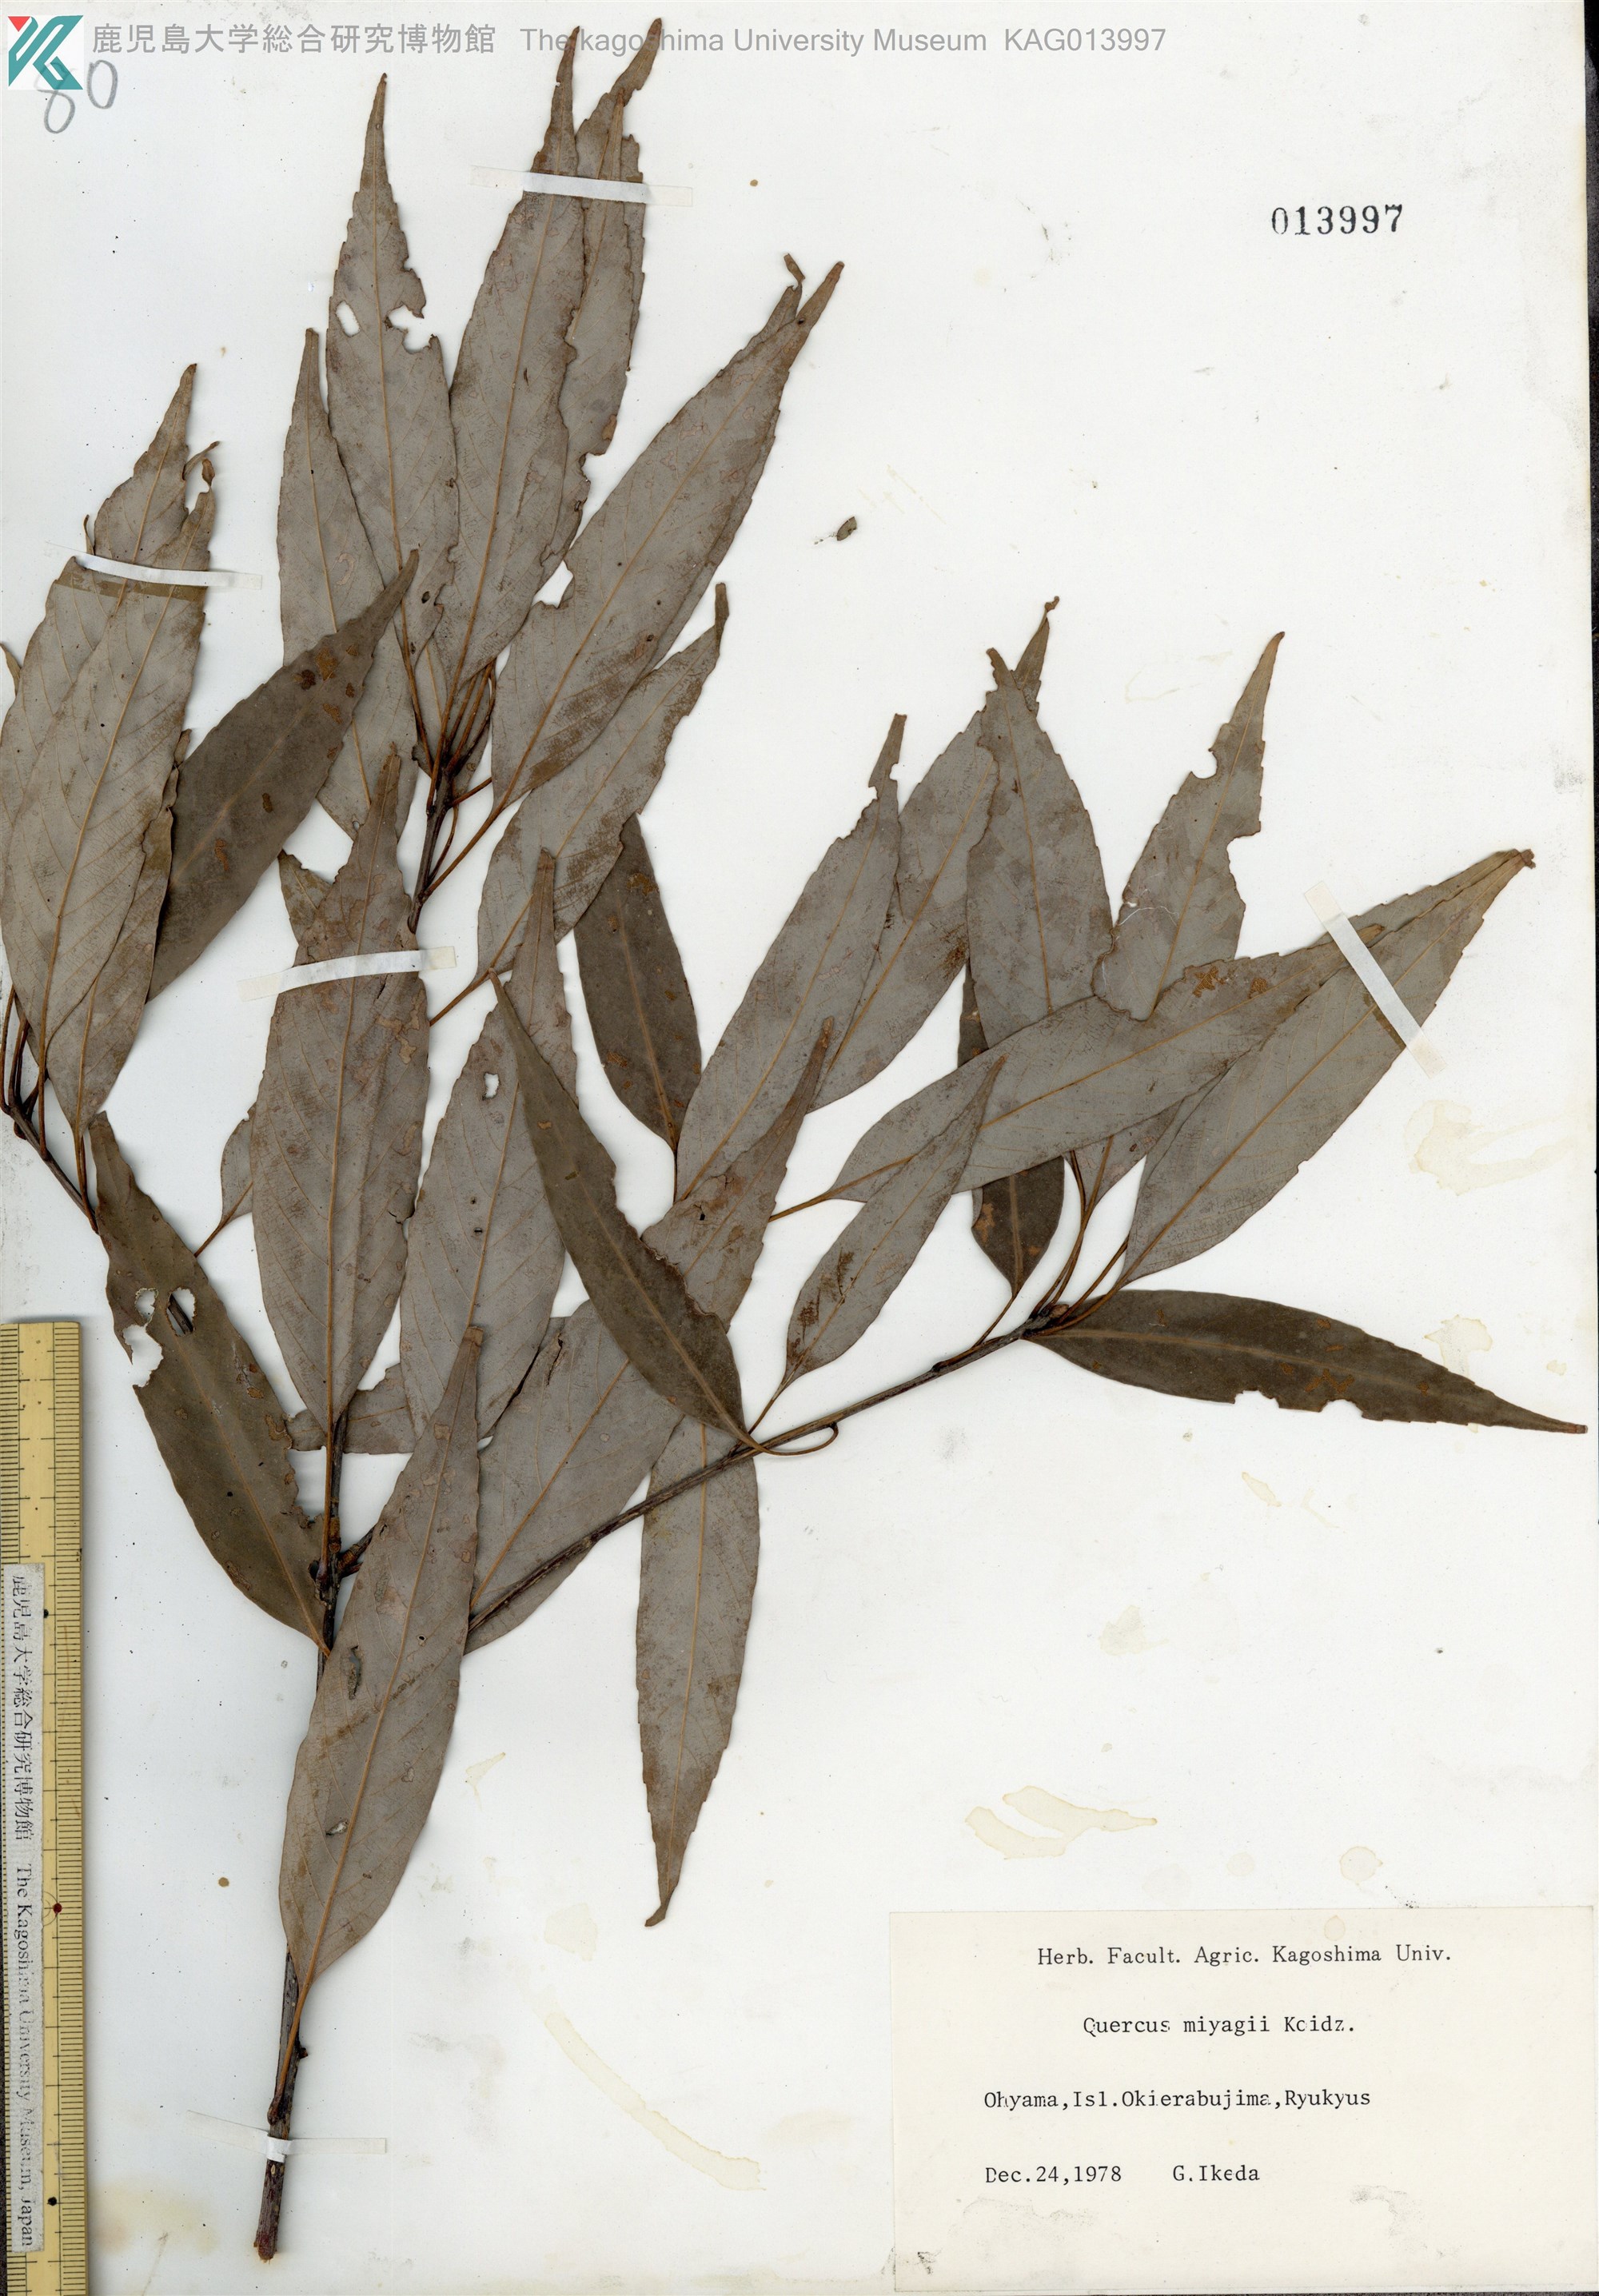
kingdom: Plantae
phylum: Tracheophyta
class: Magnoliopsida
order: Fagales
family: Fagaceae
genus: Quercus
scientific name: Quercus miyagii
